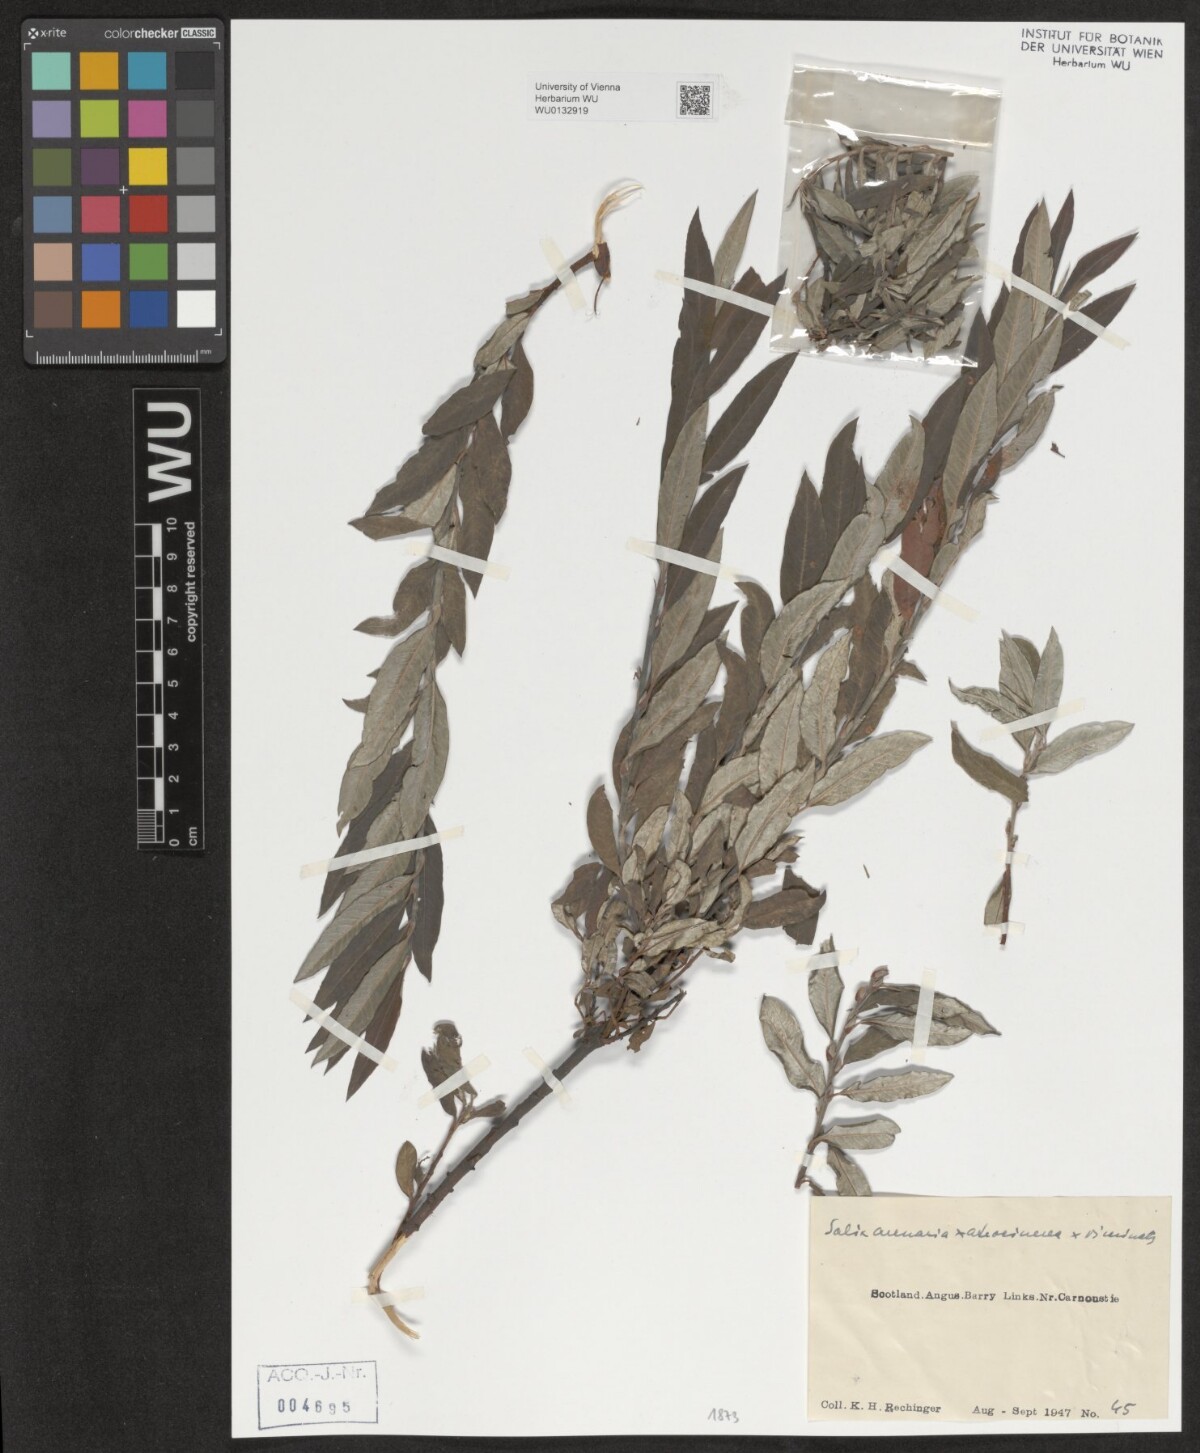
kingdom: Plantae
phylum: Tracheophyta
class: Magnoliopsida
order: Malpighiales
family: Salicaceae
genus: Salix
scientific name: Salix repens
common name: Creeping willow
